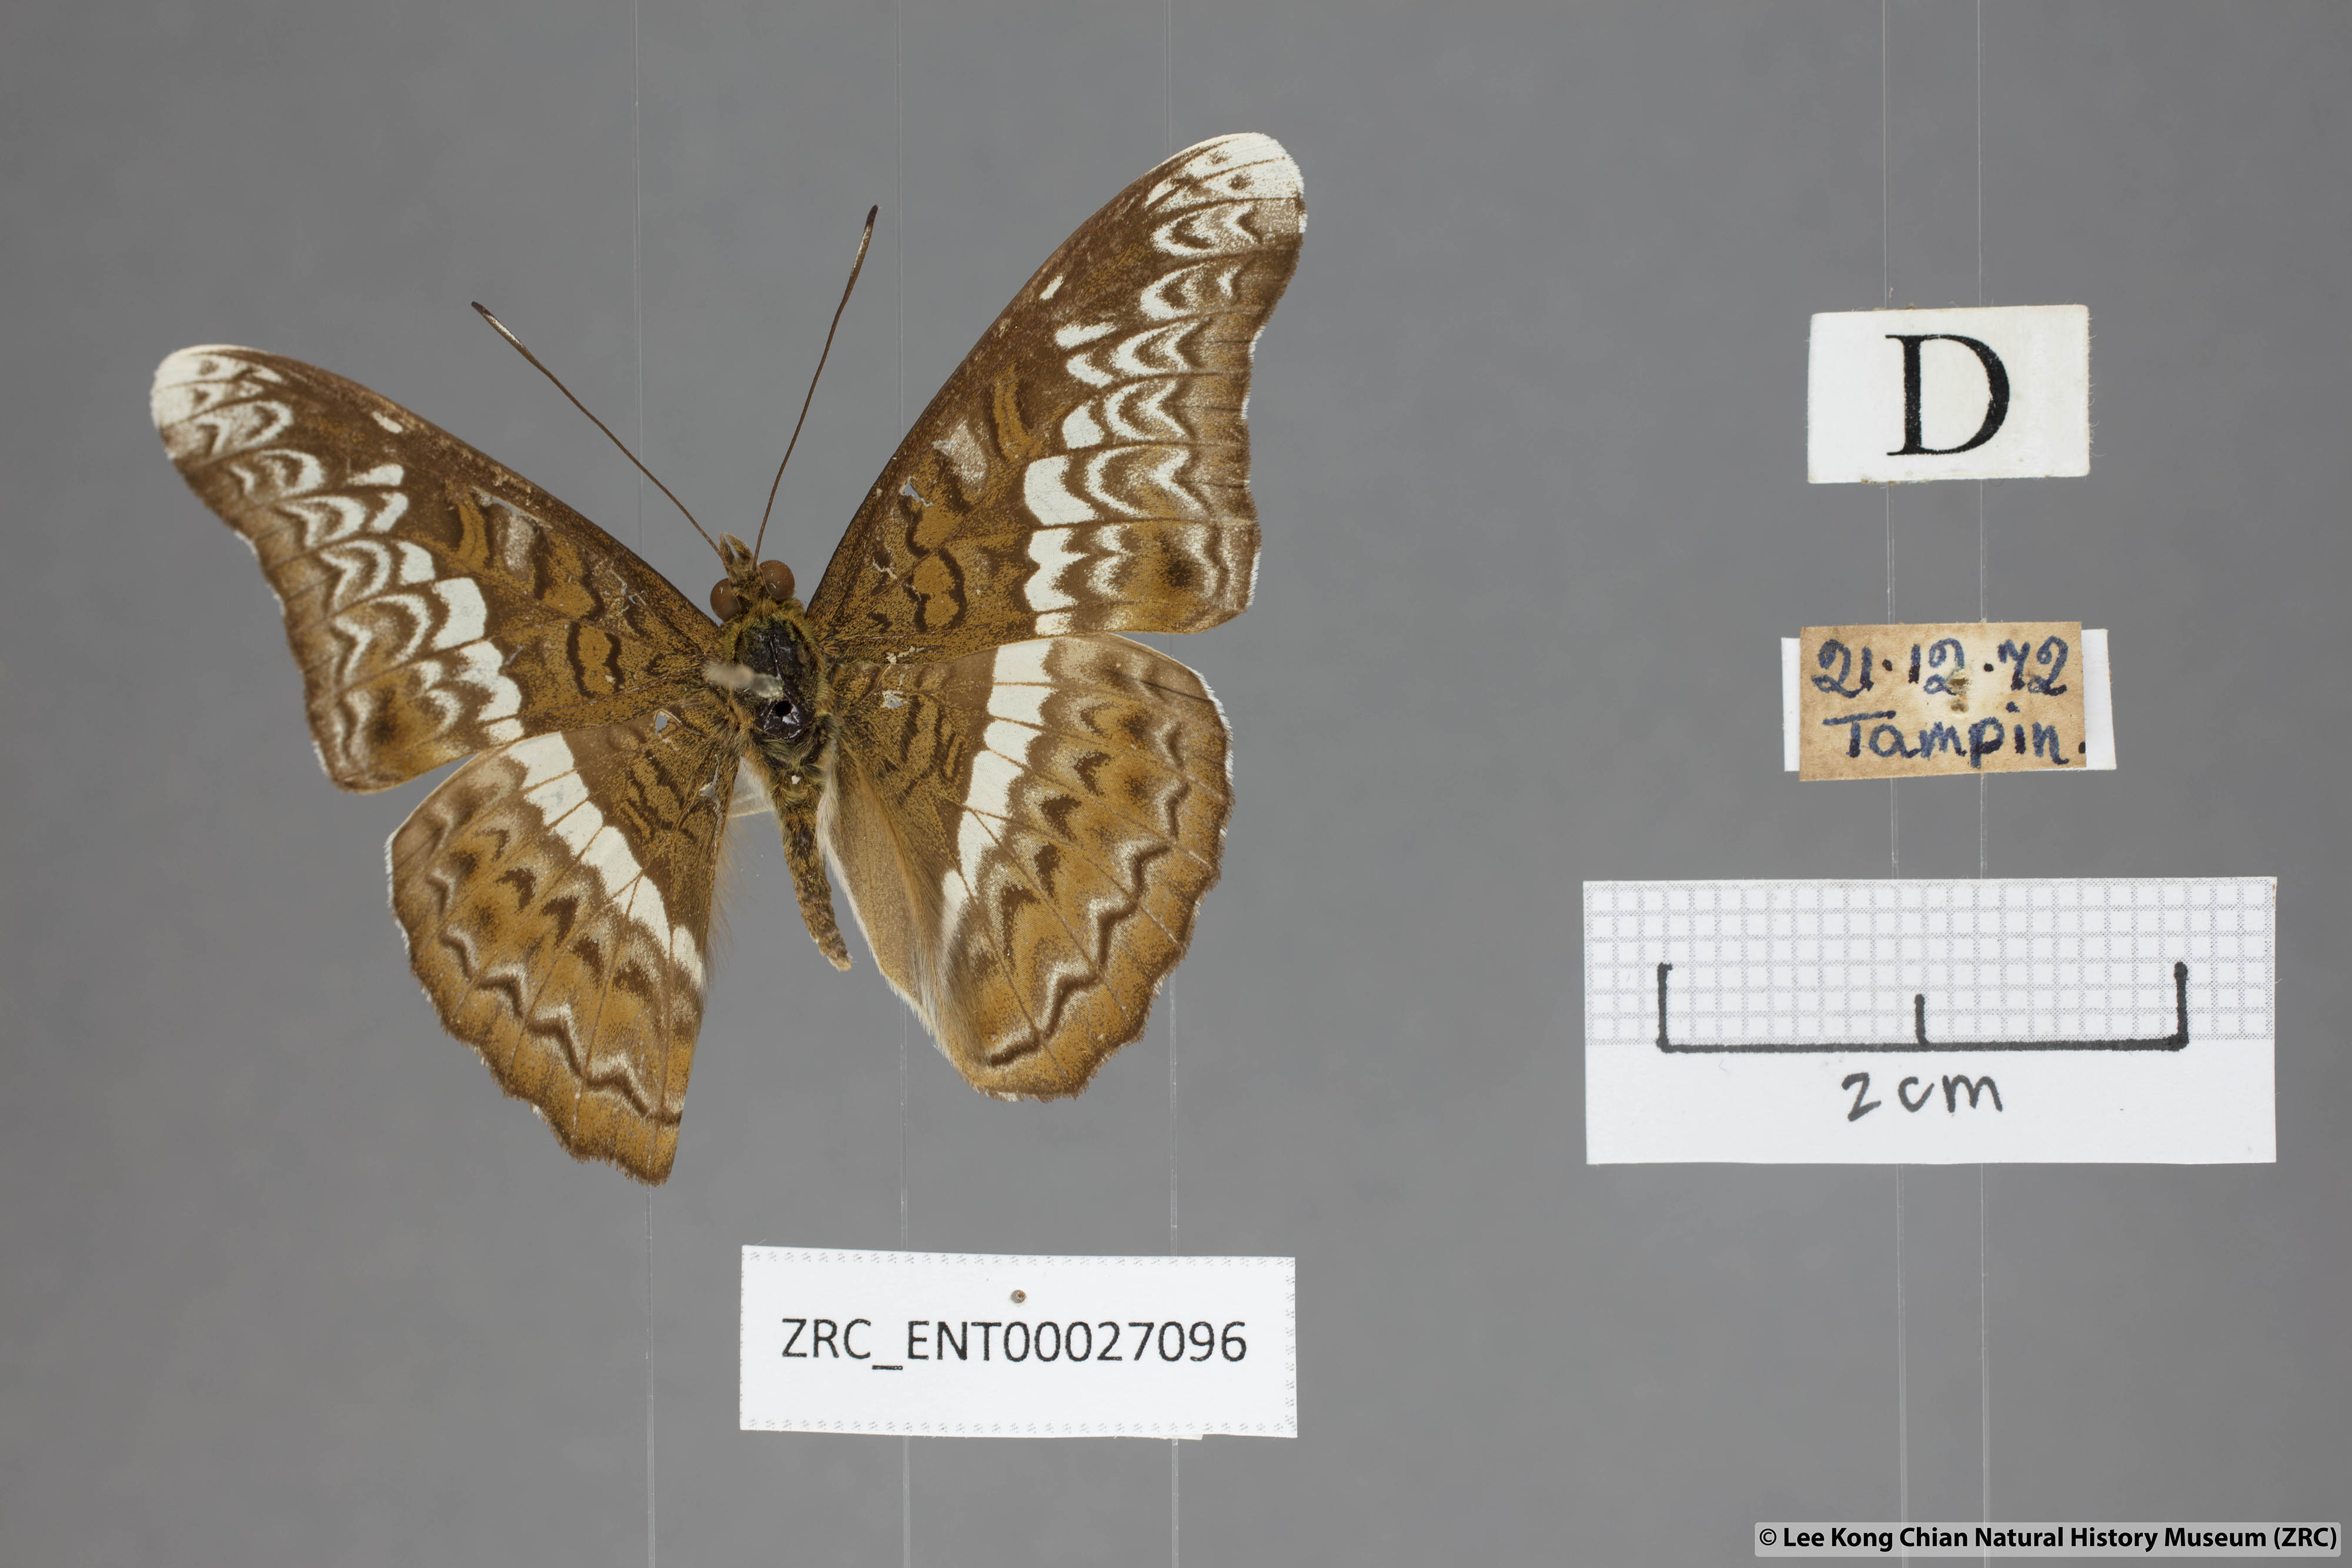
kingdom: Animalia
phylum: Arthropoda
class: Insecta
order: Lepidoptera
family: Nymphalidae
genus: Lebadea
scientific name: Lebadea martha
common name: Knight
